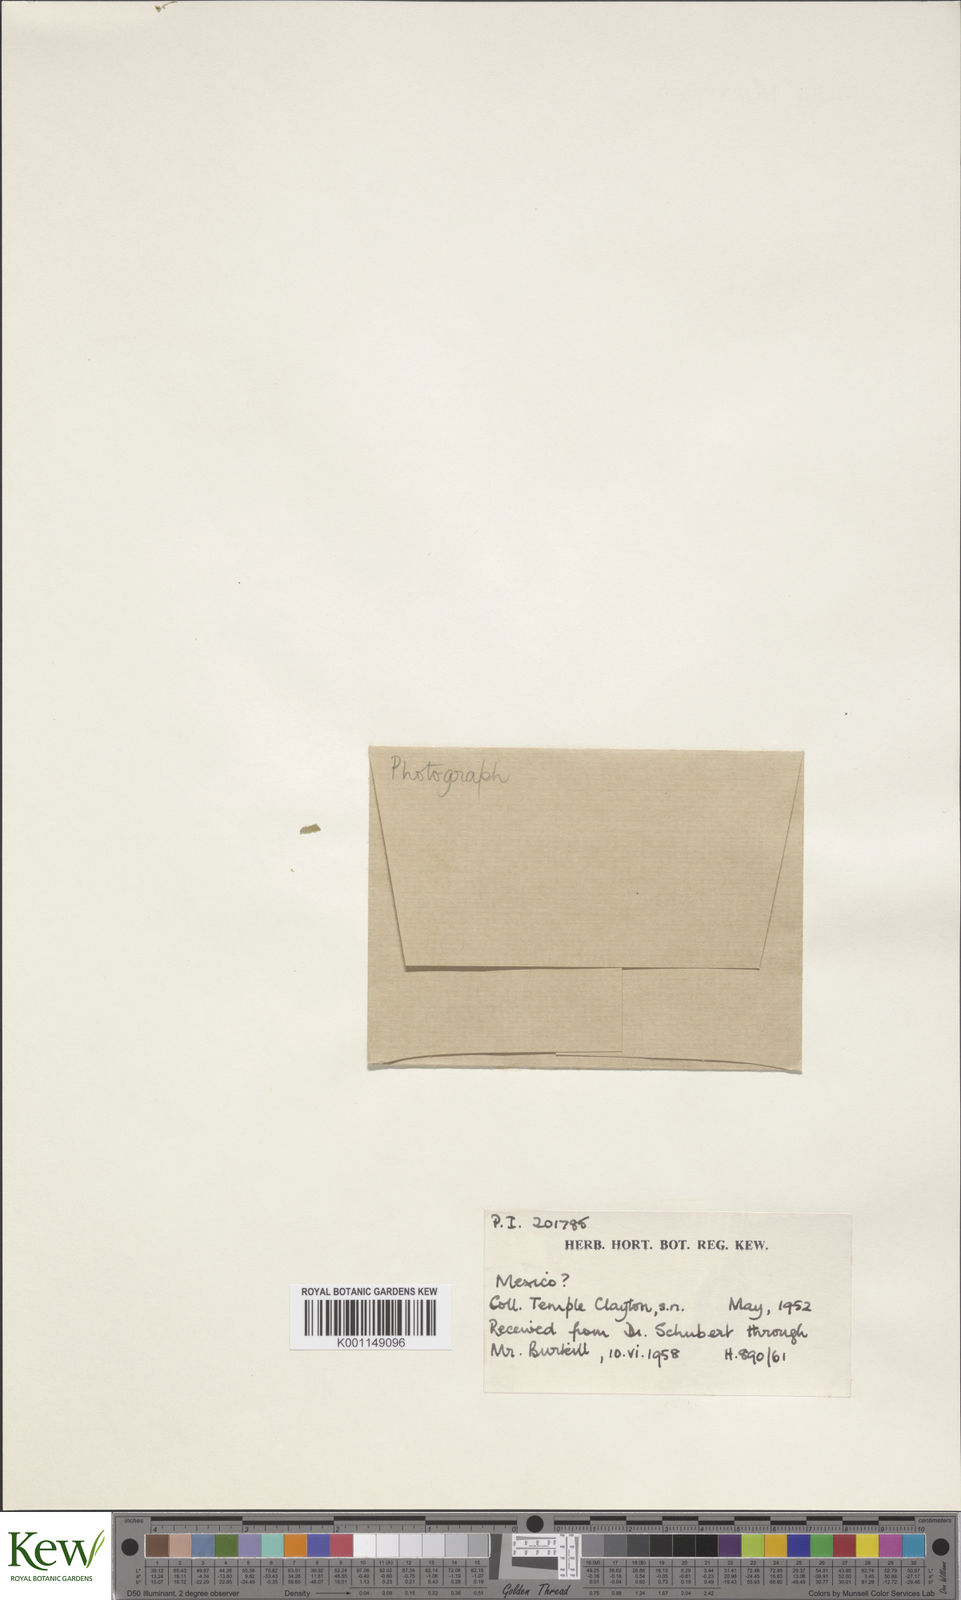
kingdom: Plantae
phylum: Tracheophyta
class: Liliopsida
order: Dioscoreales
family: Dioscoreaceae
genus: Dioscorea
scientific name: Dioscorea
